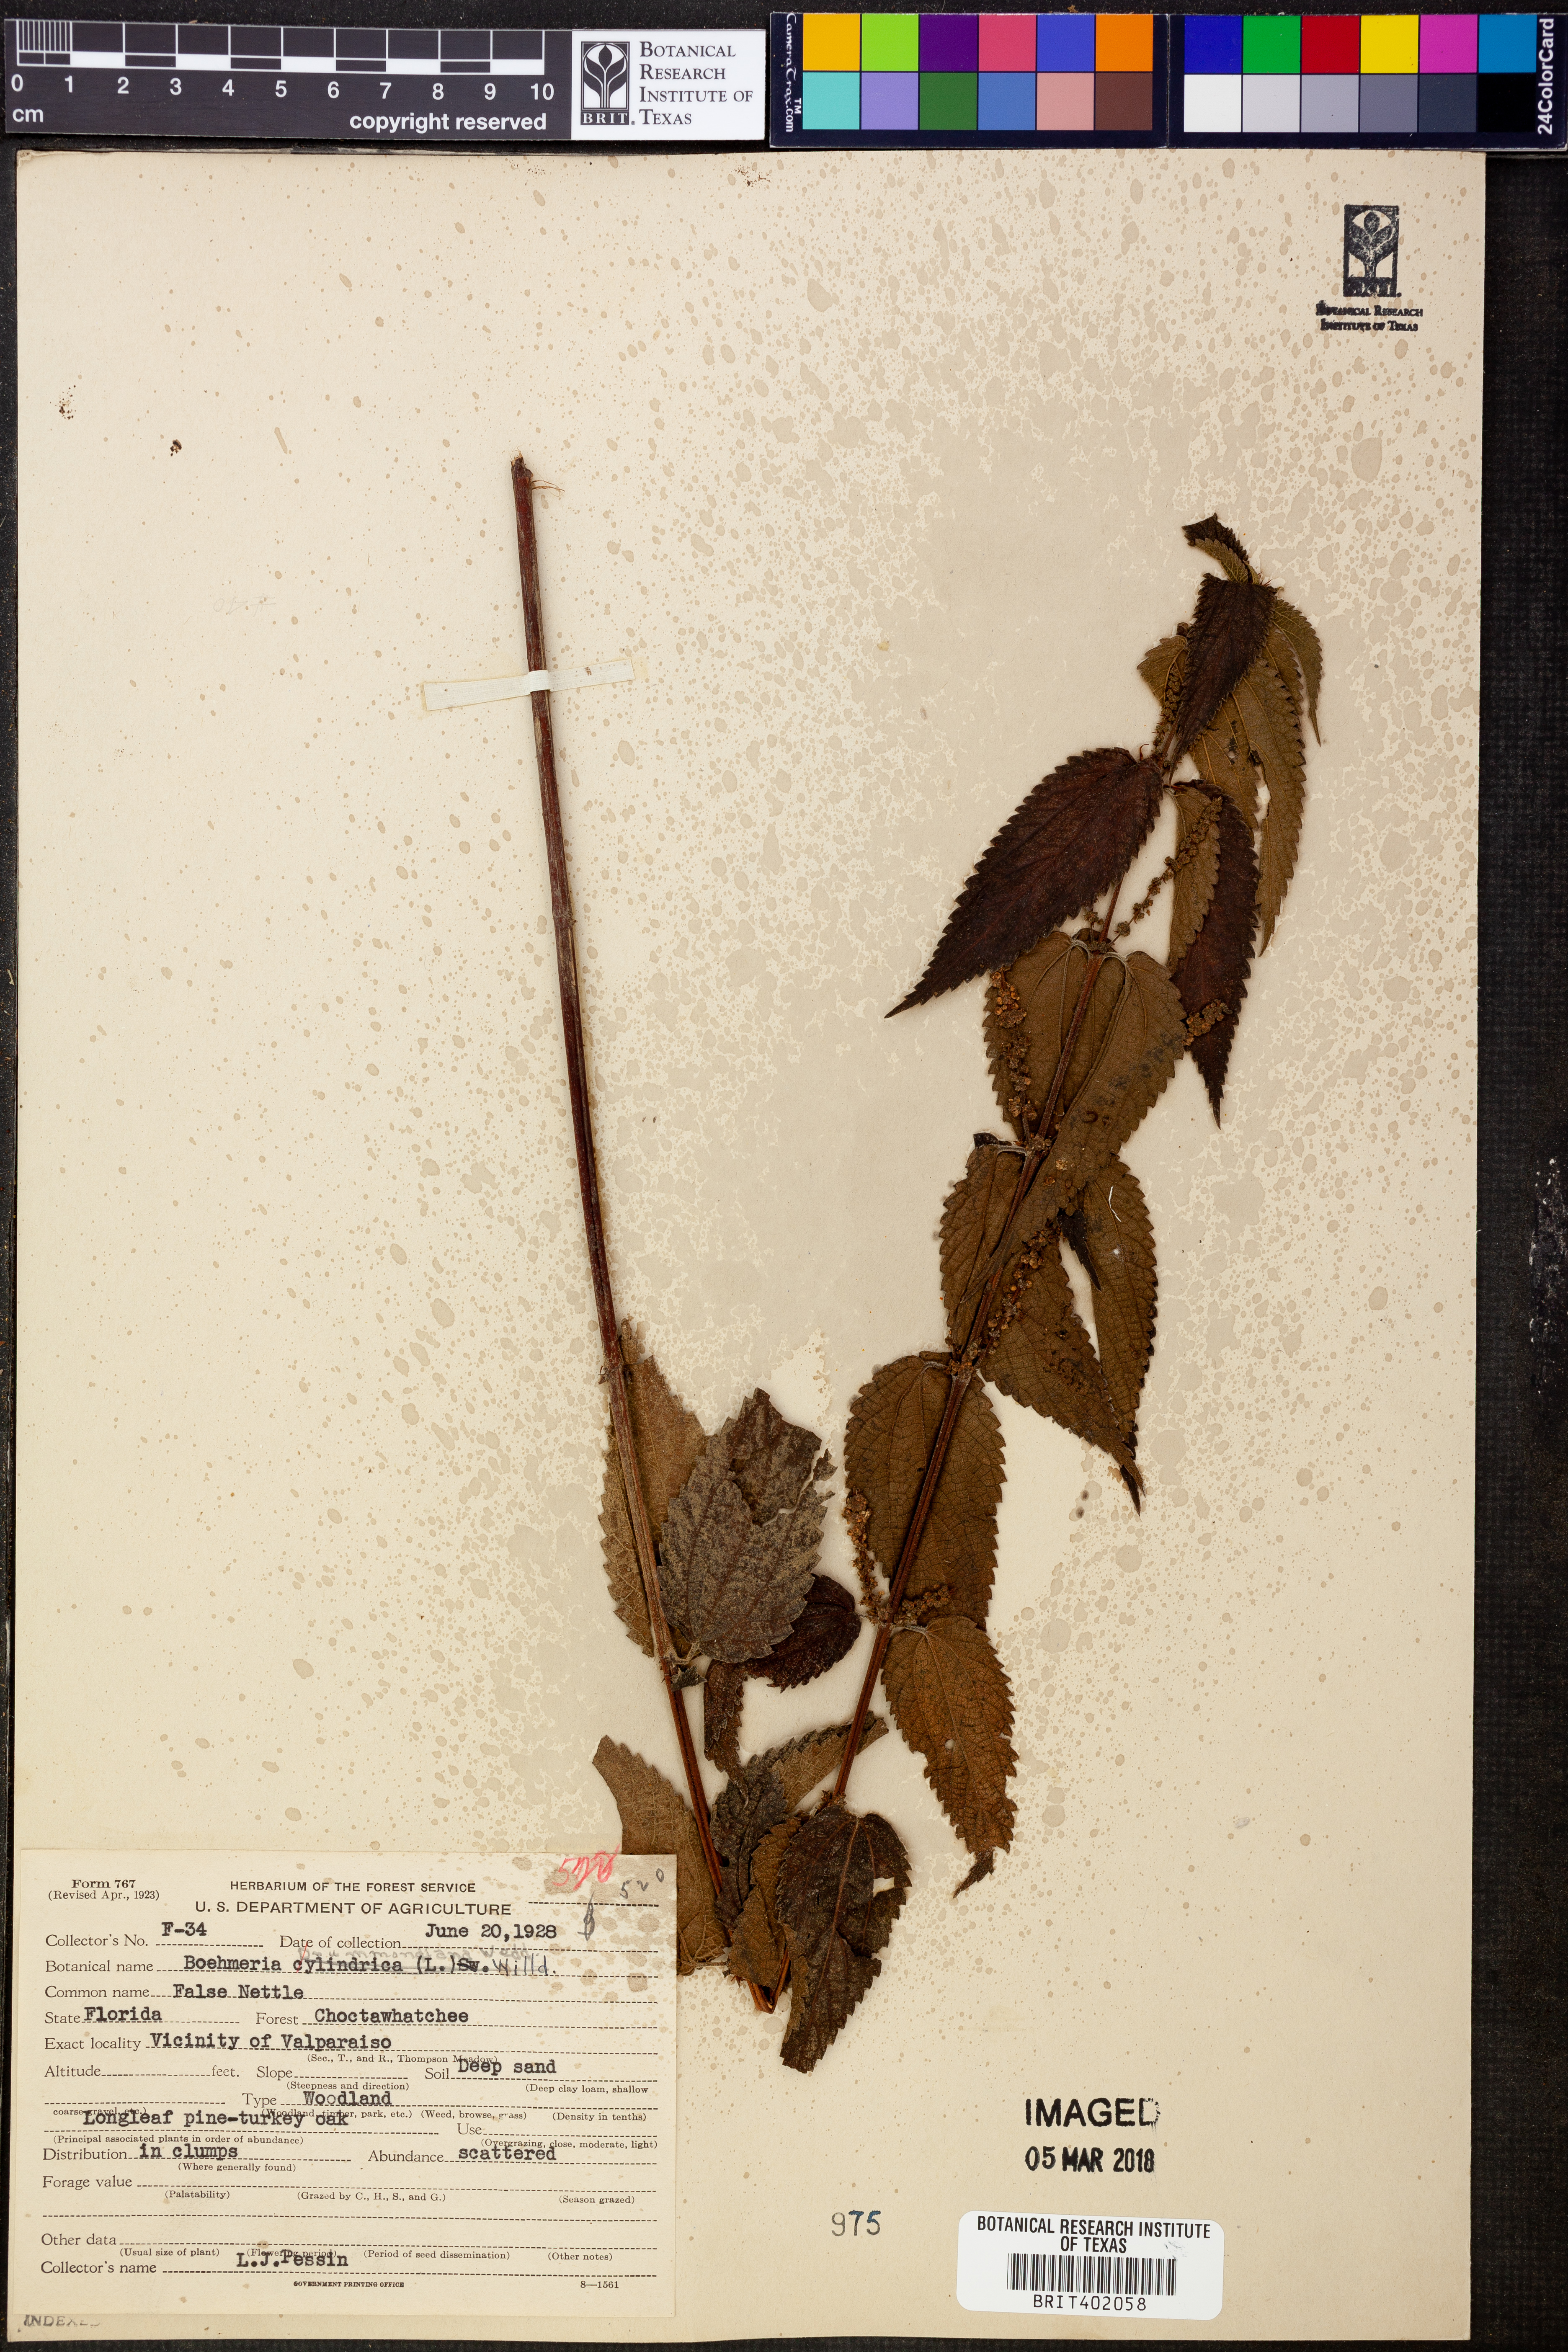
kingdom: Plantae
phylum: Tracheophyta
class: Magnoliopsida
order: Rosales
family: Urticaceae
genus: Boehmeria
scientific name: Boehmeria cylindrica
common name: Bog-hemp
